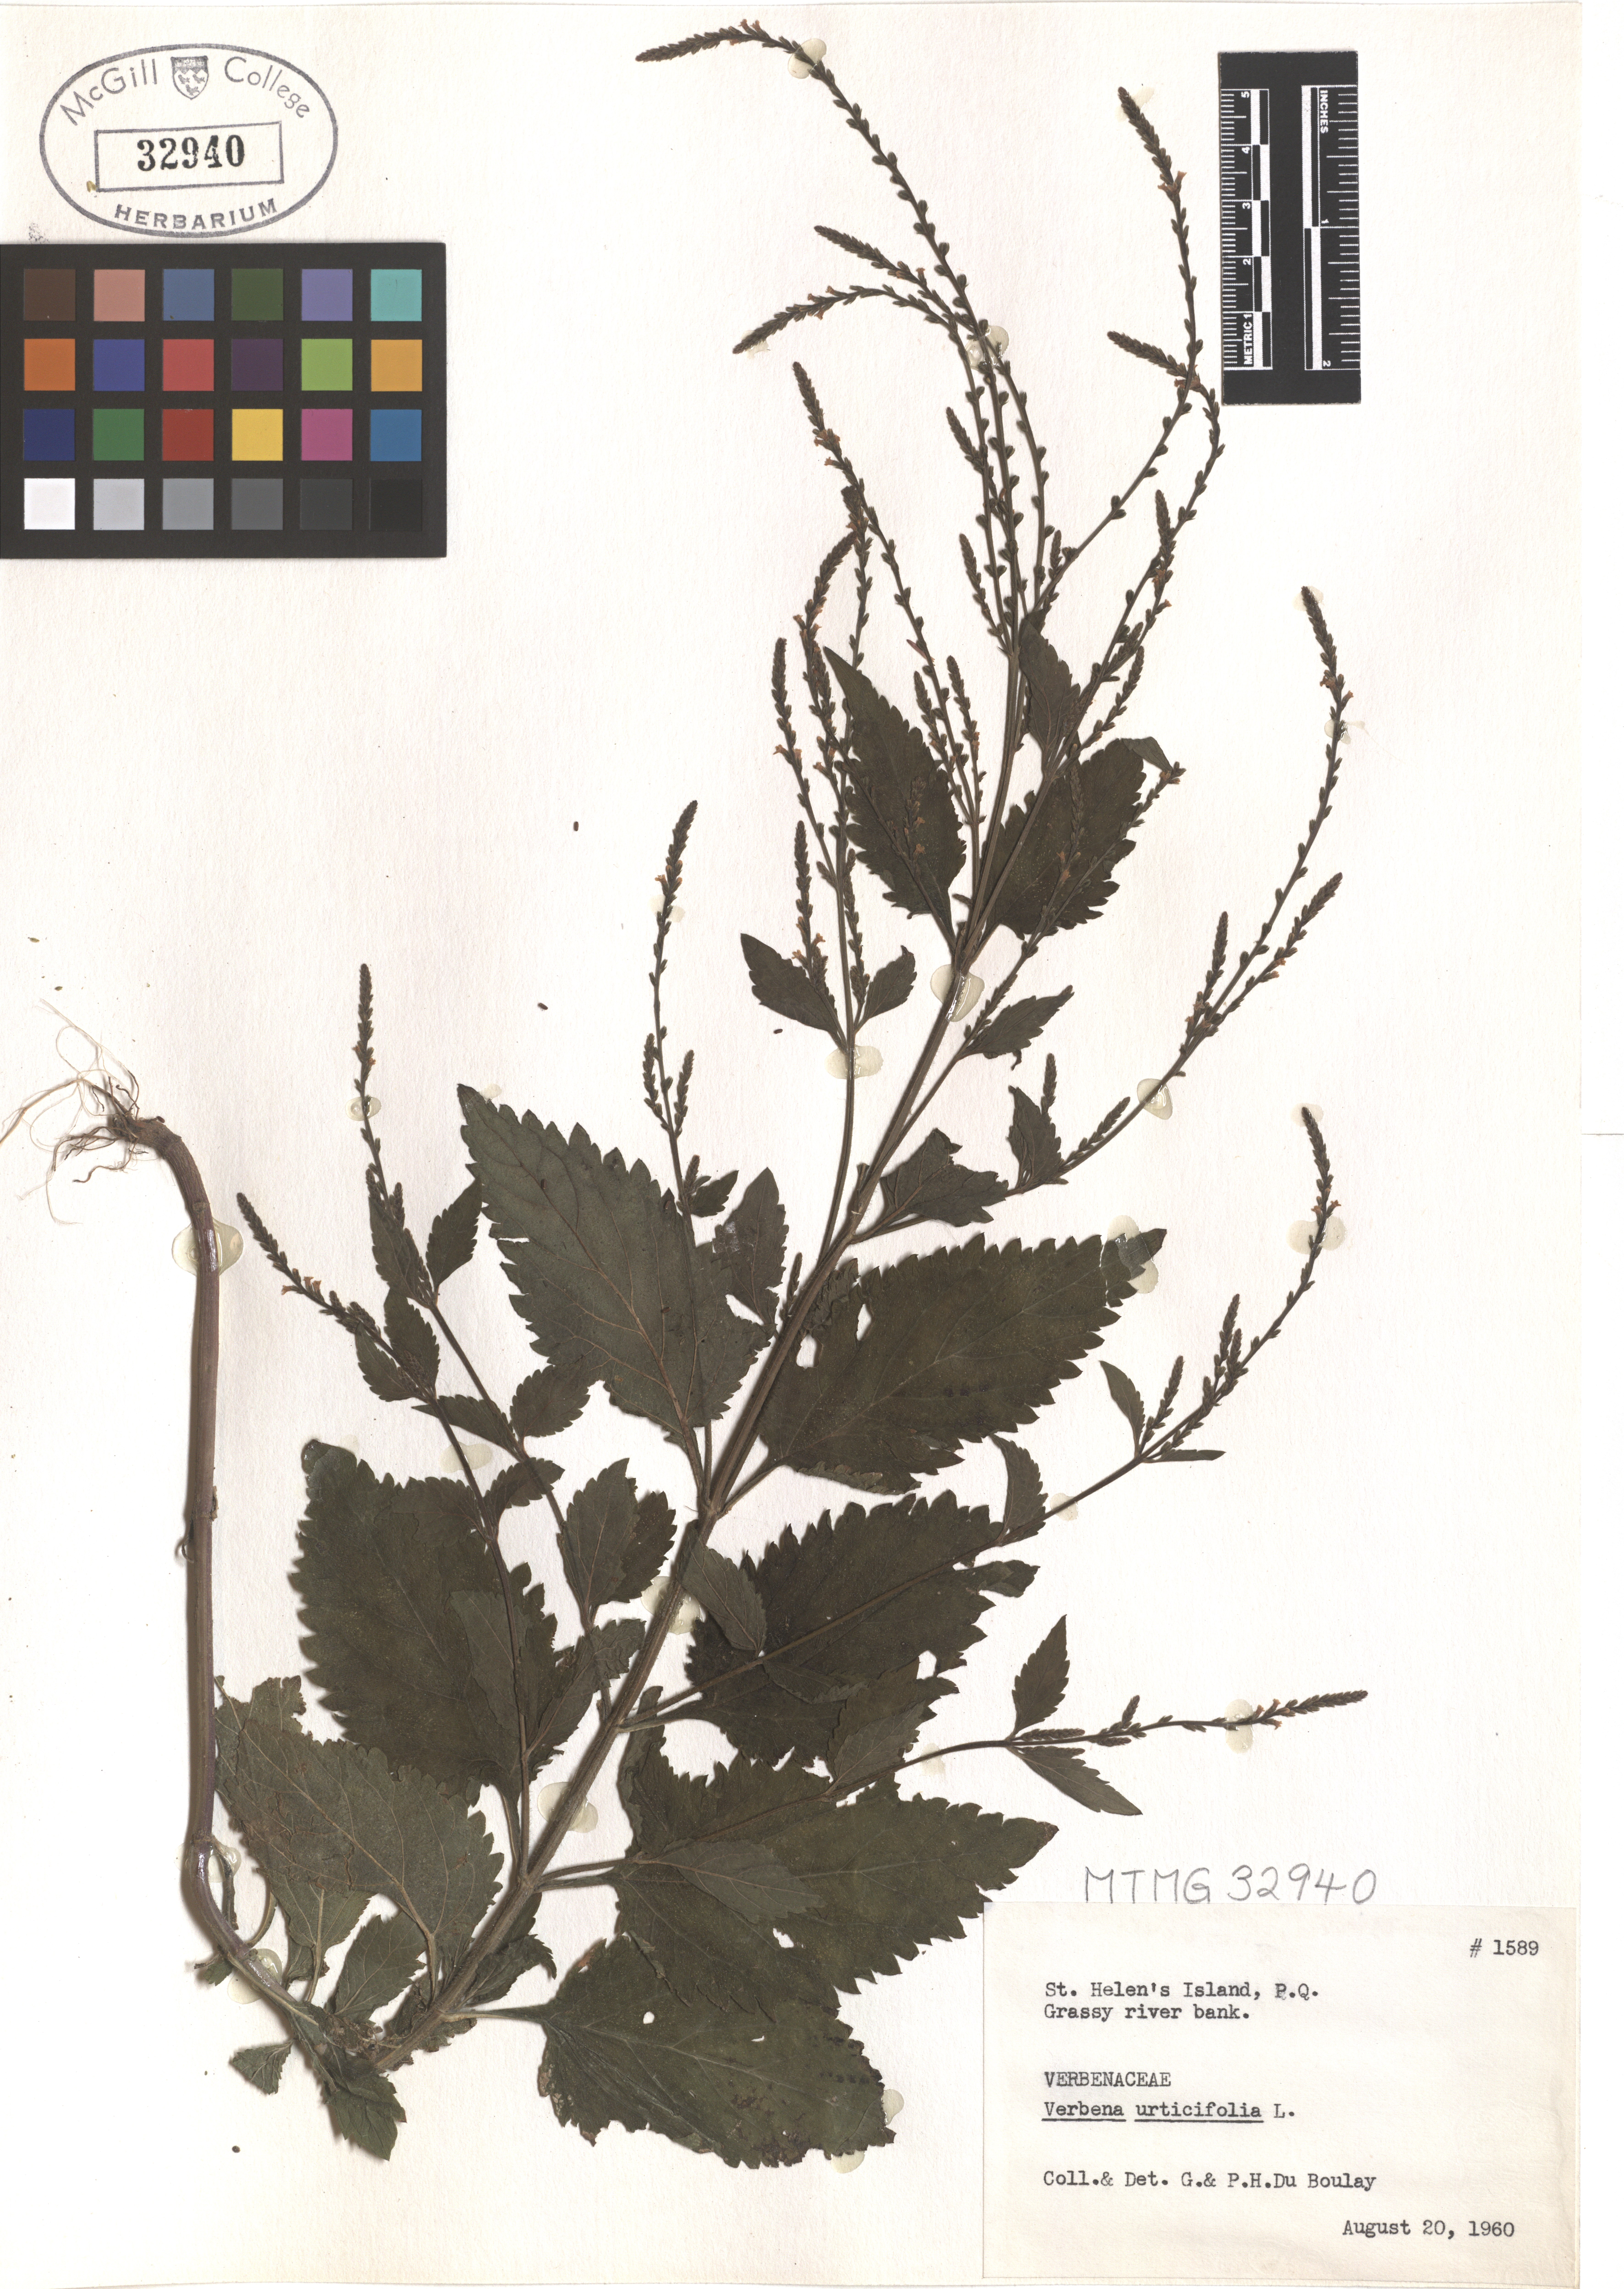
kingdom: Plantae
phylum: Tracheophyta
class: Magnoliopsida
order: Lamiales
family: Verbenaceae
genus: Verbena
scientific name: Verbena urticifolia
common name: Nettle-leaved vervain
